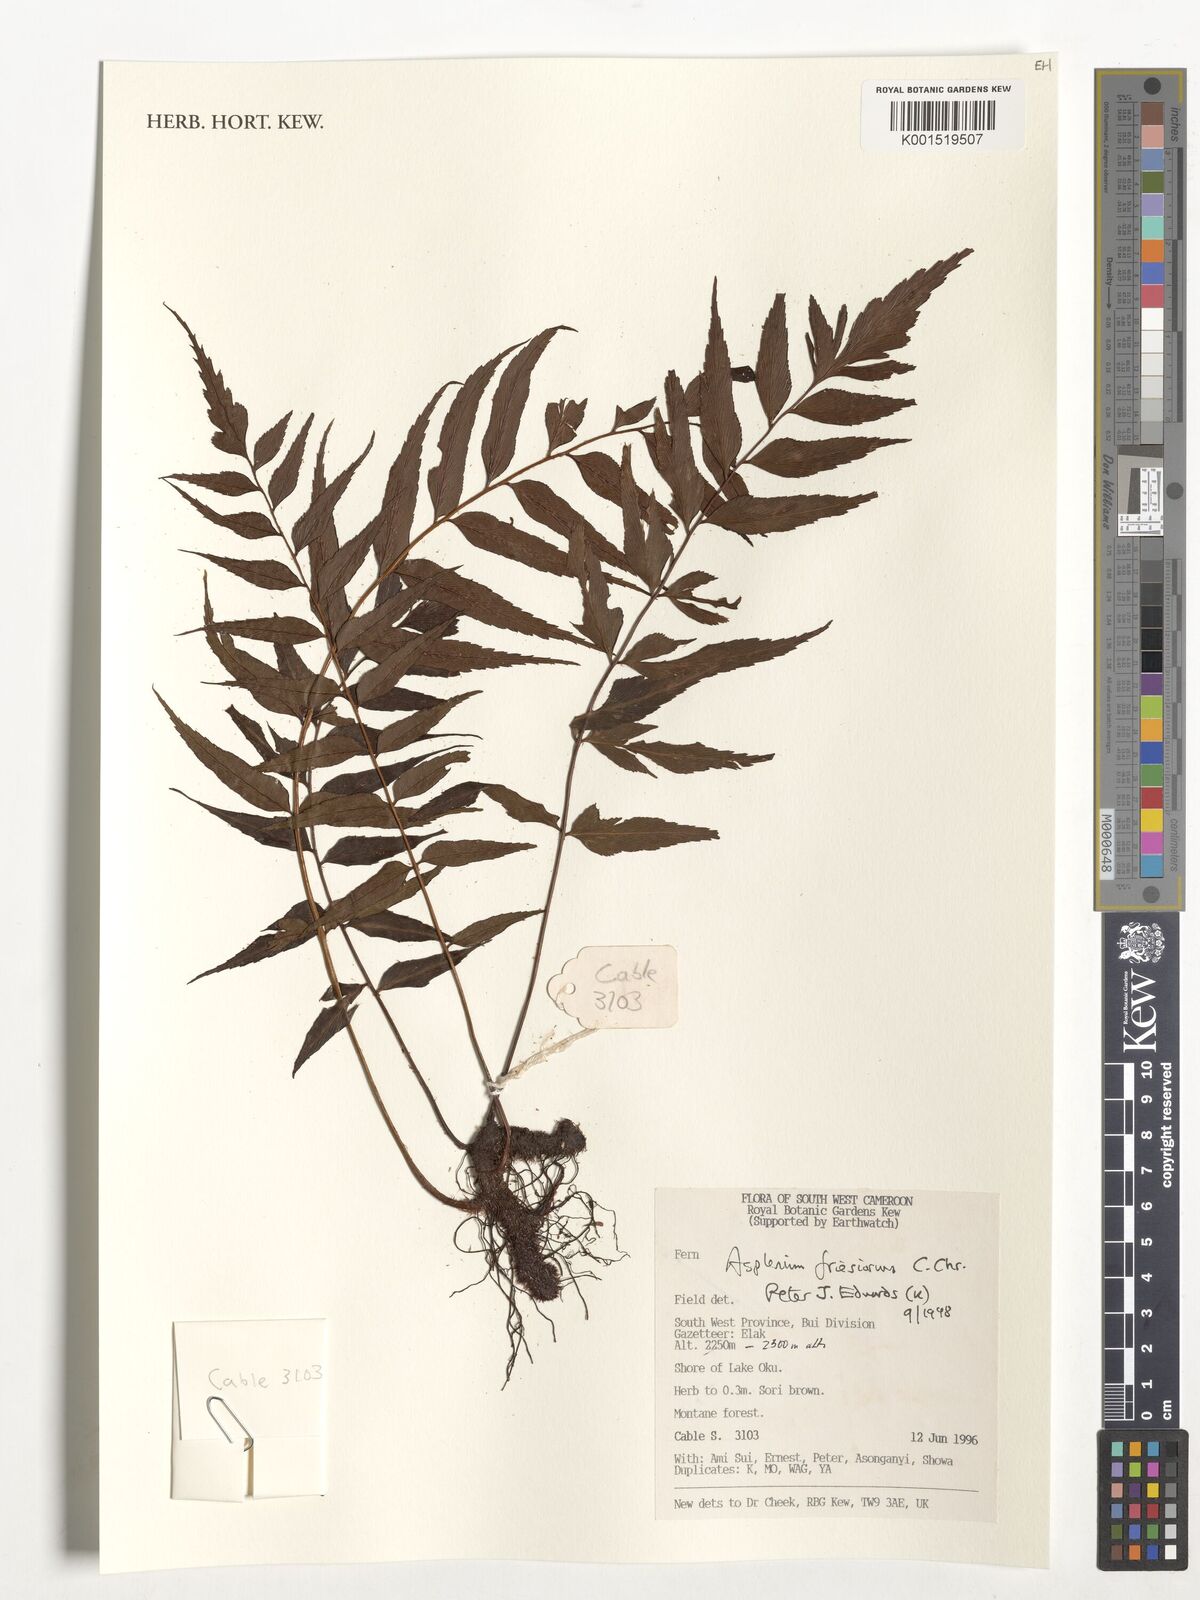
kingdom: Plantae
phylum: Tracheophyta
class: Polypodiopsida
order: Polypodiales
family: Aspleniaceae
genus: Asplenium
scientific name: Asplenium gueinzianum
